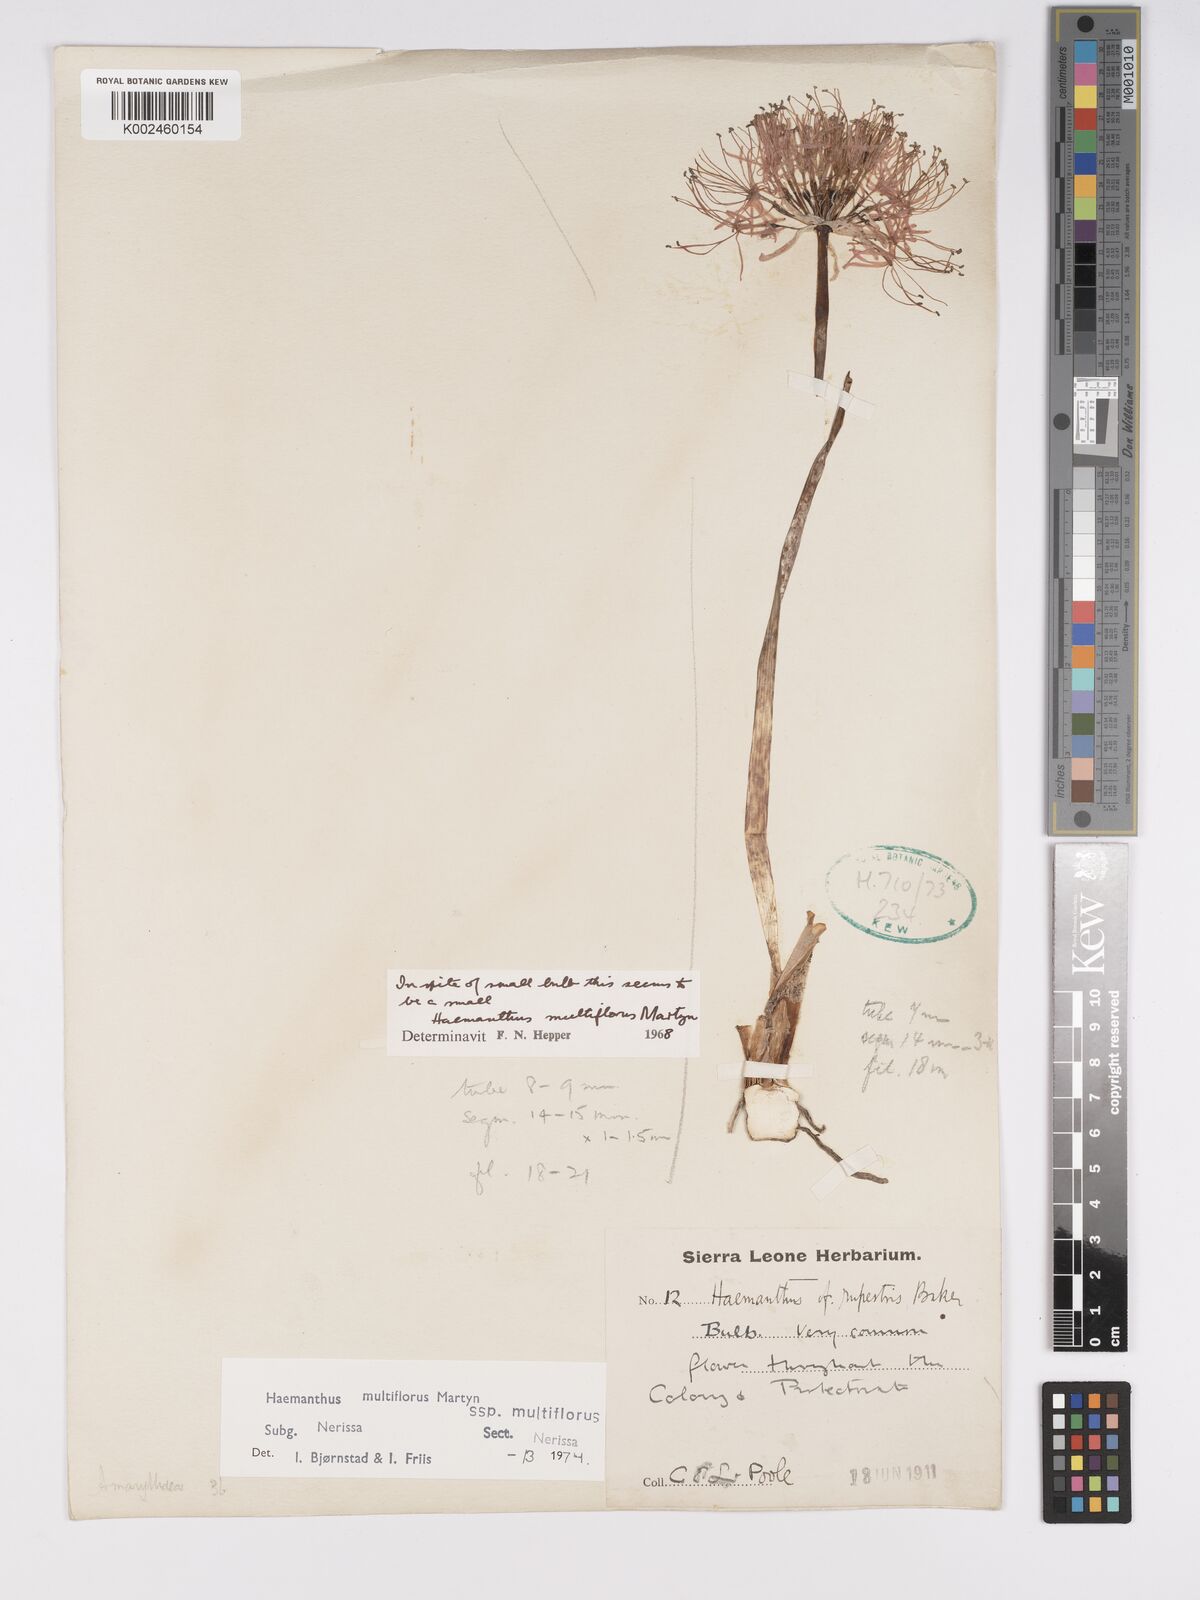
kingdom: Plantae
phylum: Tracheophyta
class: Liliopsida
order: Asparagales
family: Amaryllidaceae
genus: Scadoxus
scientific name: Scadoxus multiflorus
